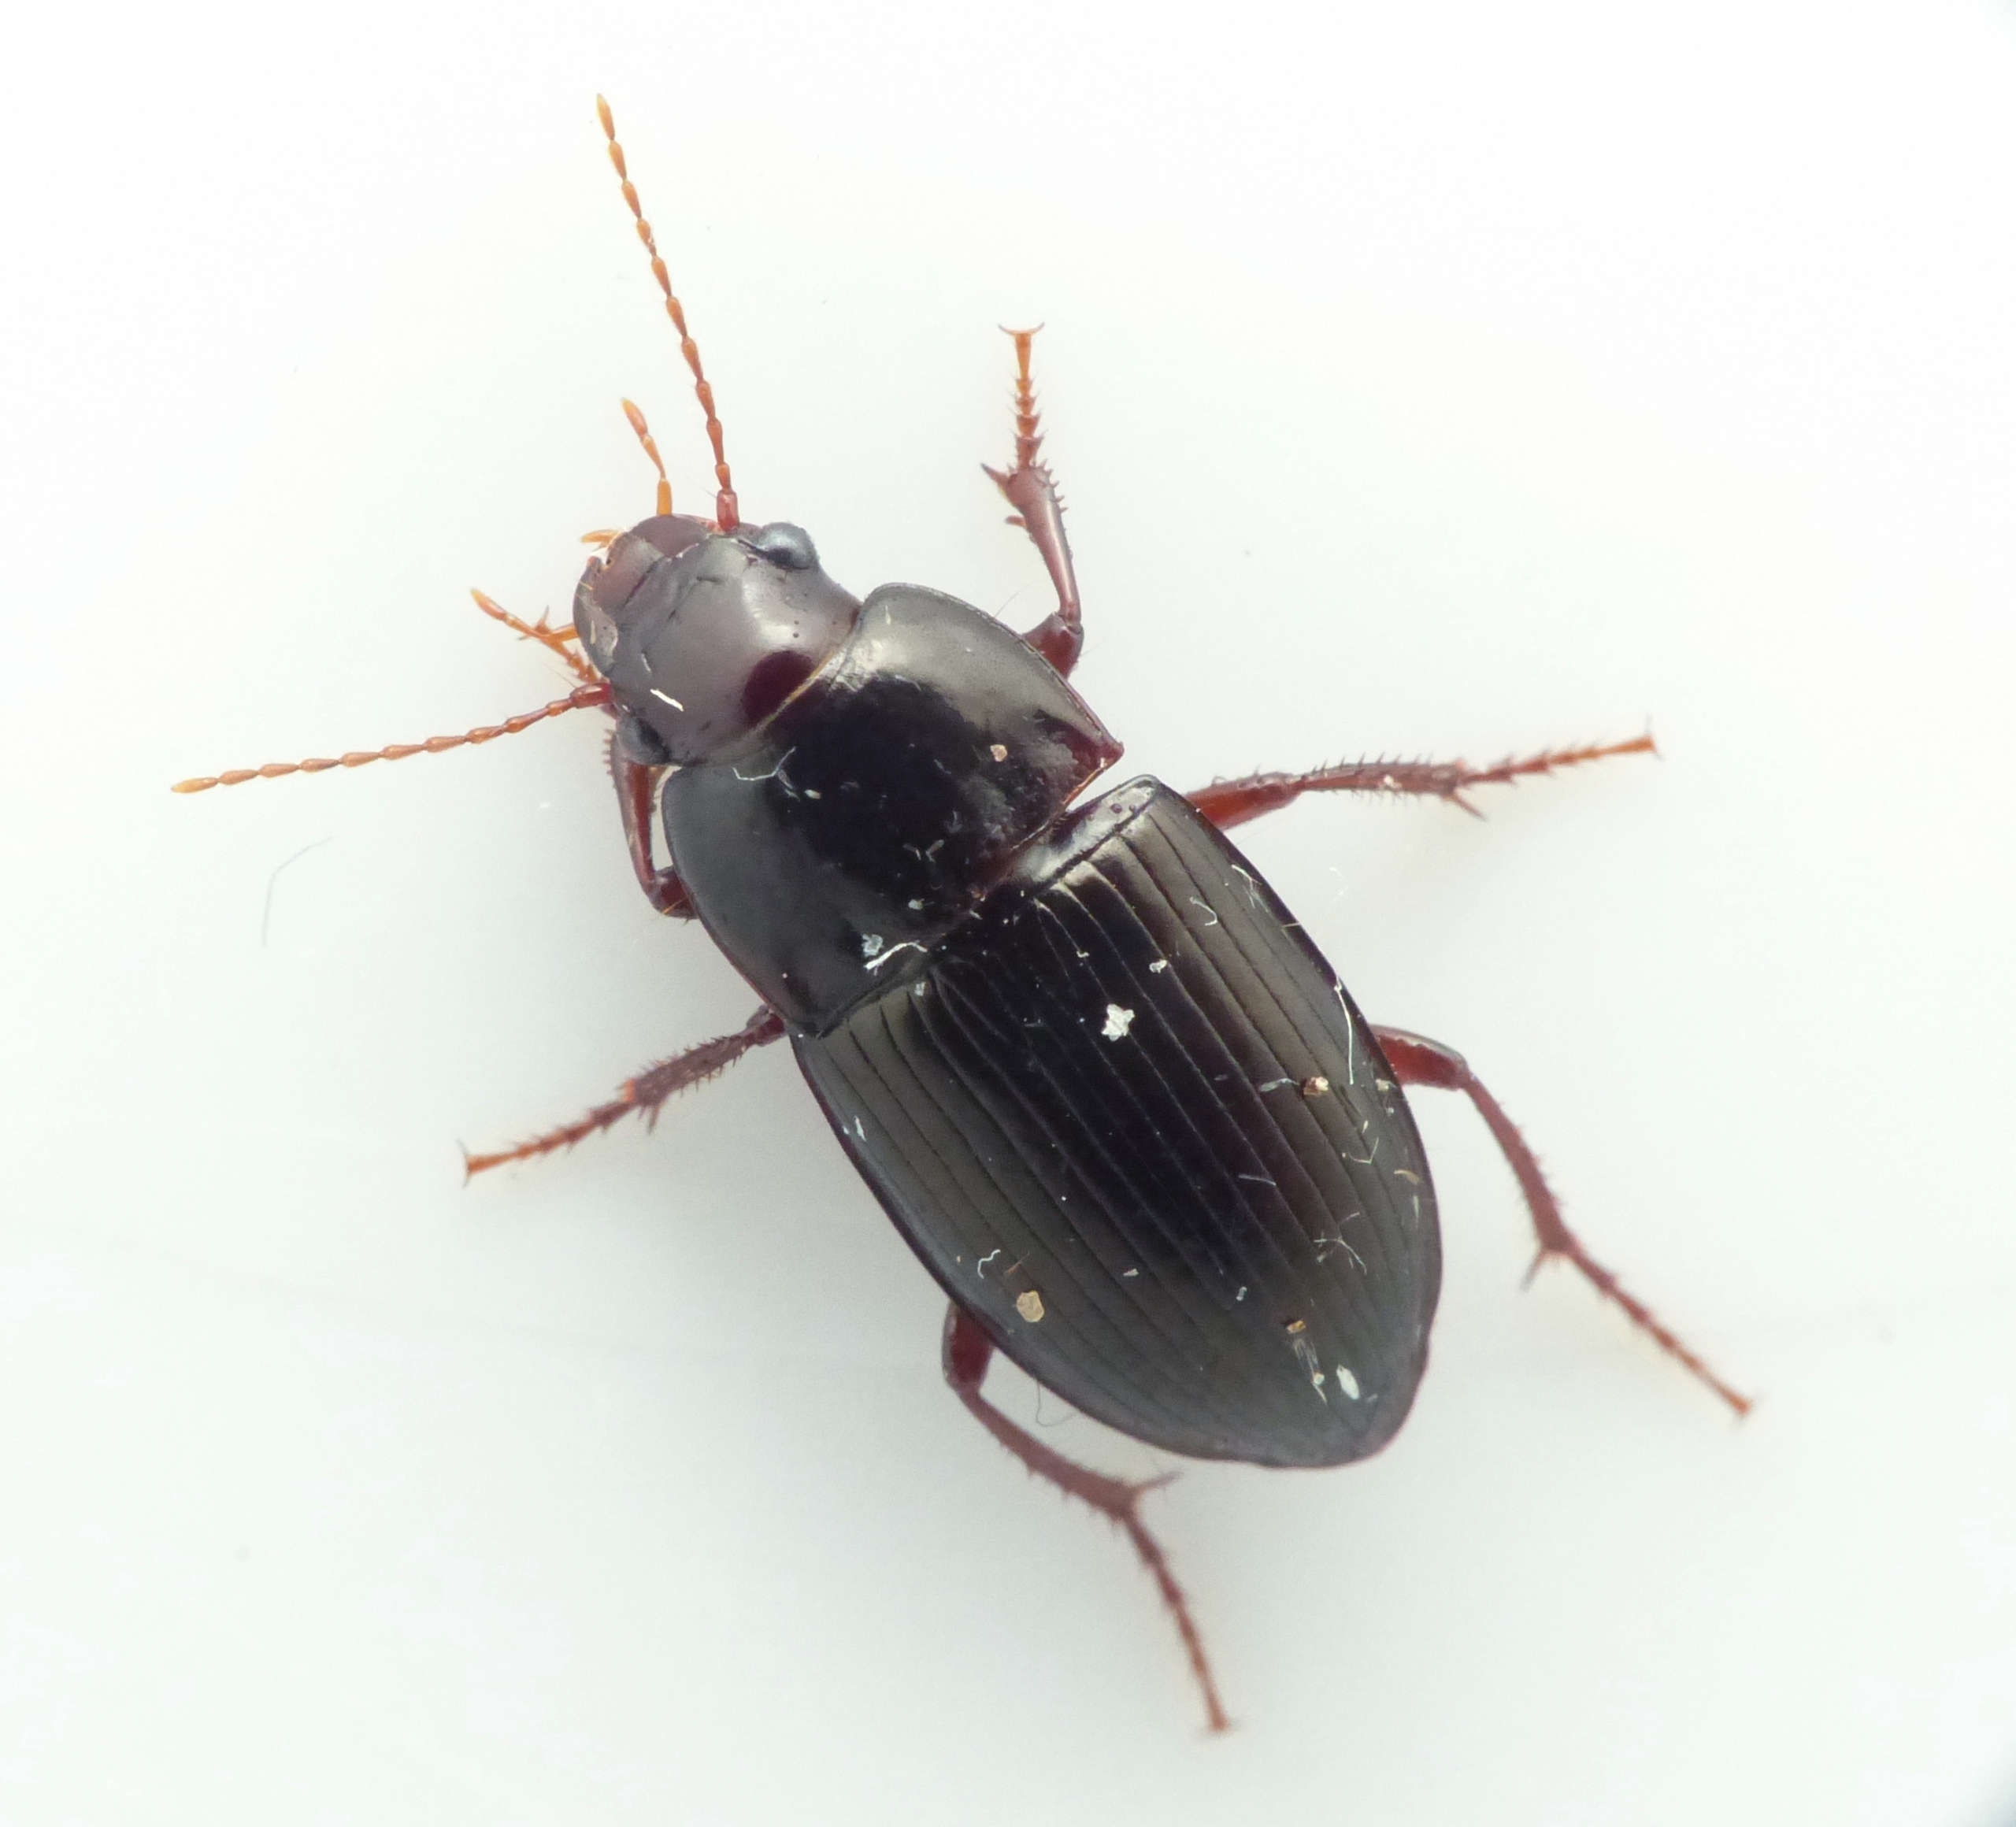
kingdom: Animalia
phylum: Arthropoda
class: Insecta
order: Coleoptera
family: Carabidae
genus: Amara
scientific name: Amara consularis
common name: Bred ovalløber
